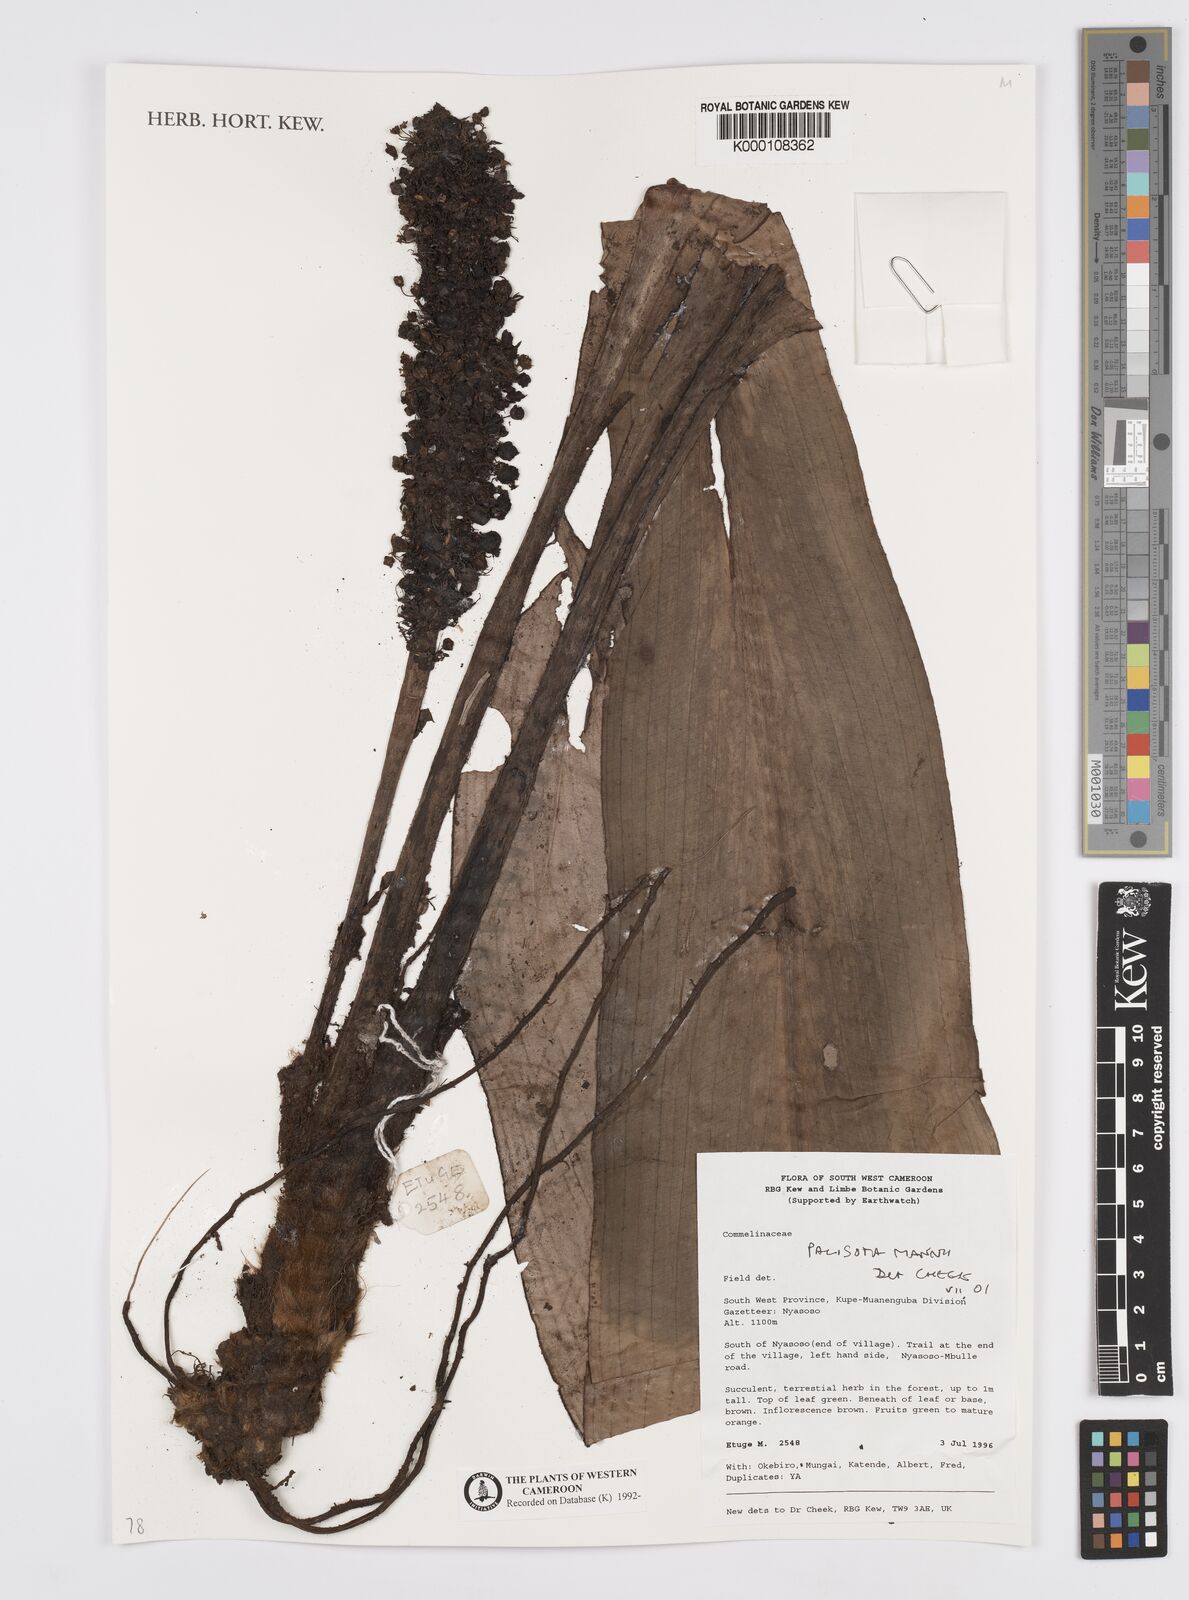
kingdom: Plantae
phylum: Tracheophyta
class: Liliopsida
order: Commelinales
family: Commelinaceae
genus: Palisota
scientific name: Palisota mannii
